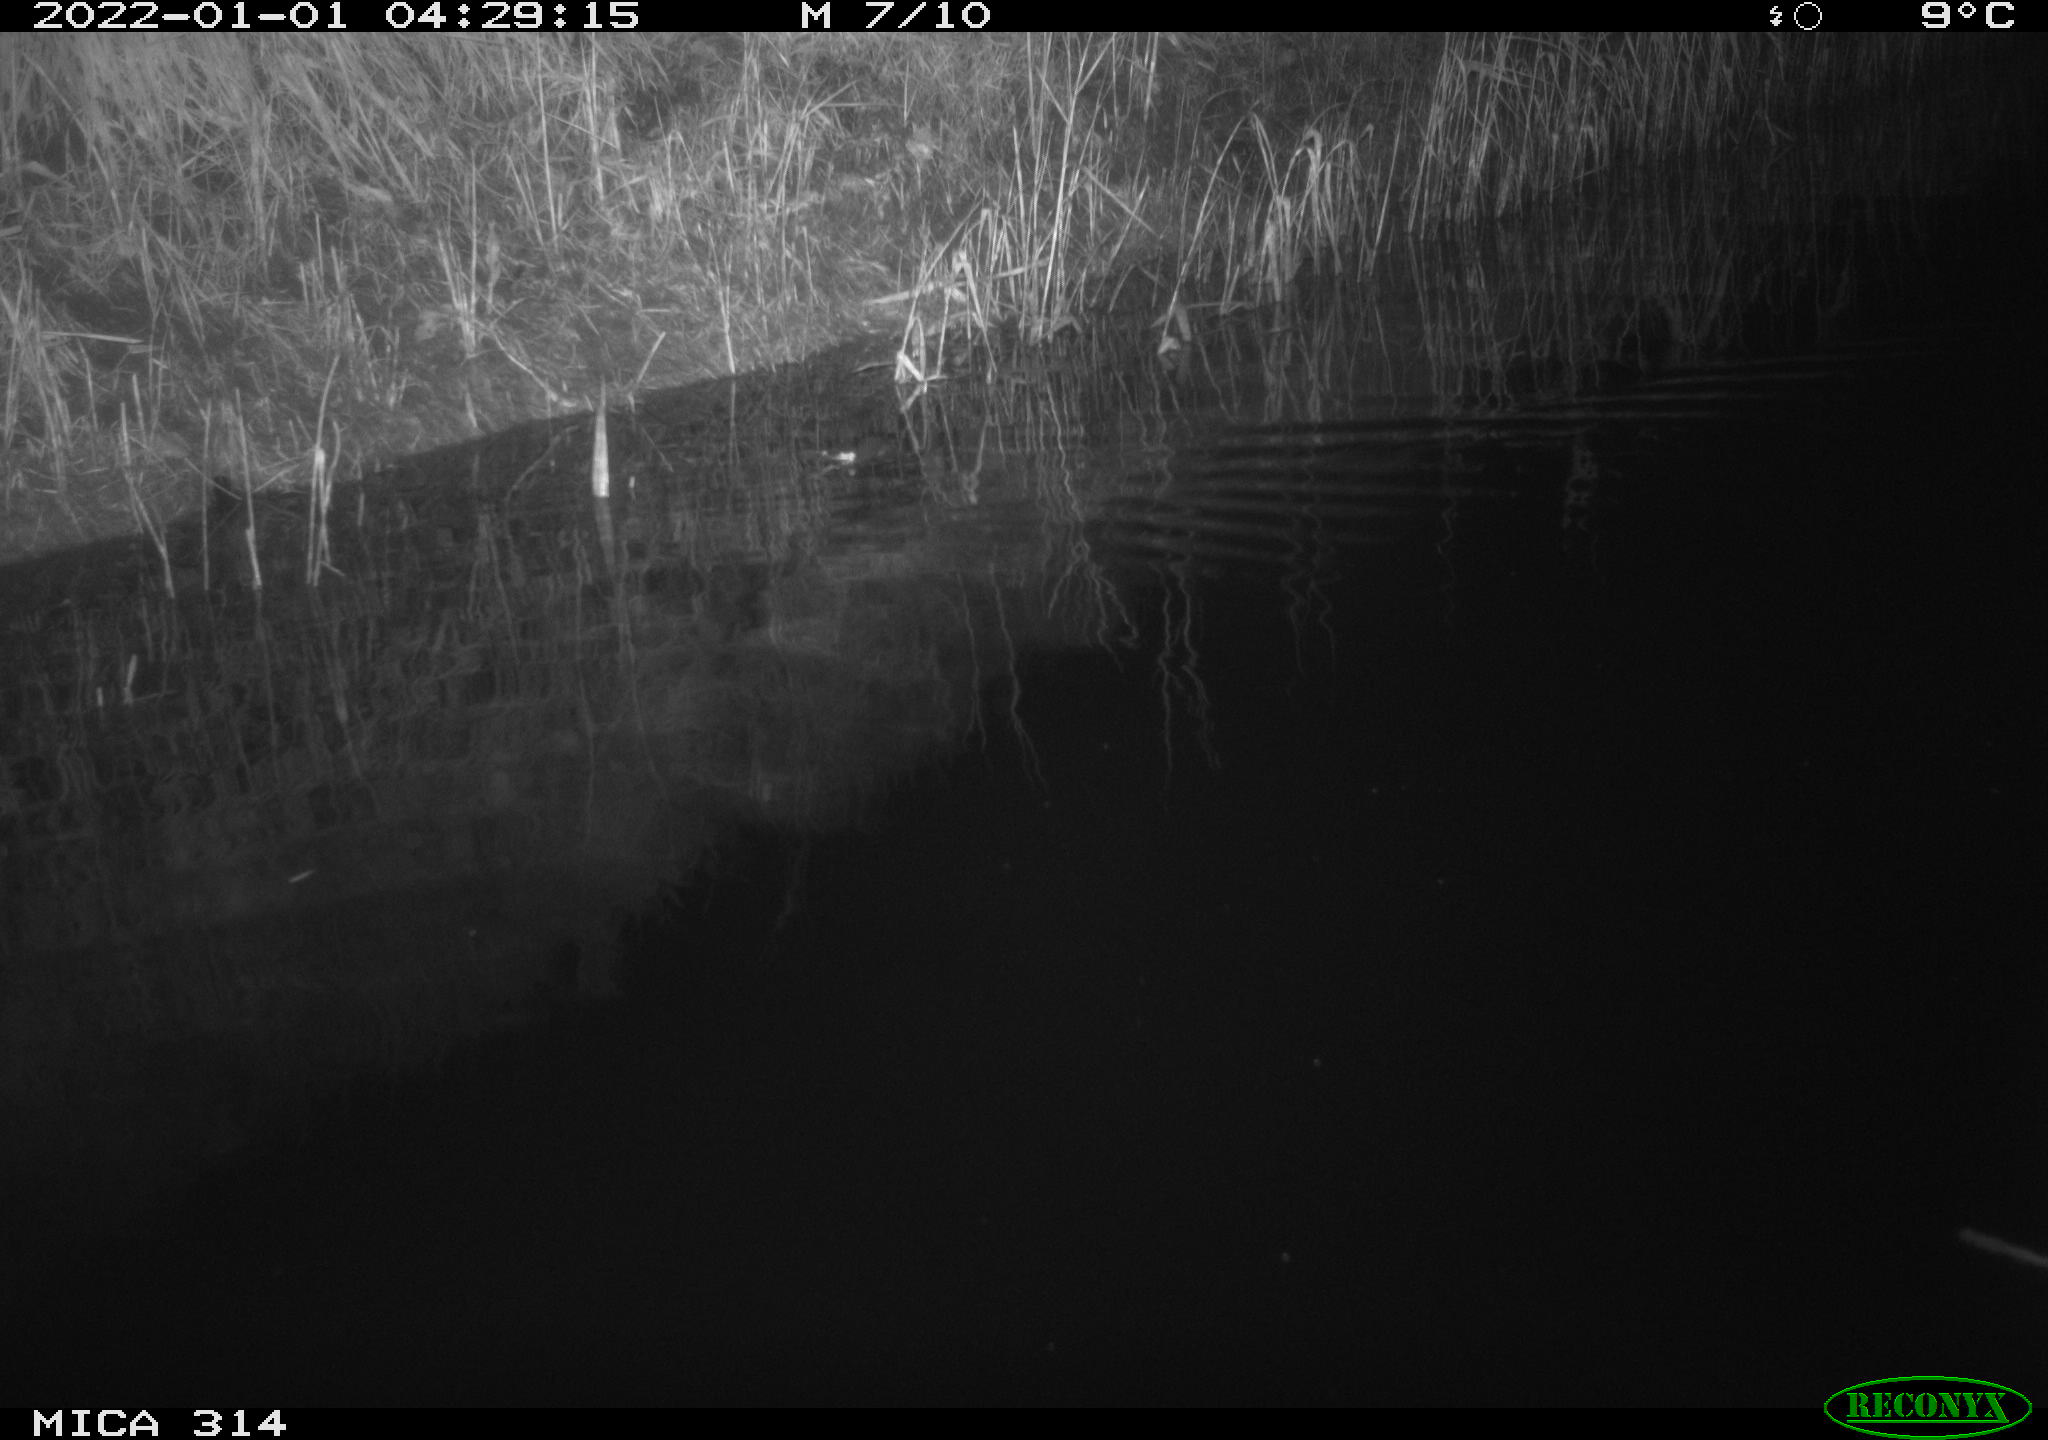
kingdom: Animalia
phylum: Chordata
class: Mammalia
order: Rodentia
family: Muridae
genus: Rattus
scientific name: Rattus norvegicus
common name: Brown rat
